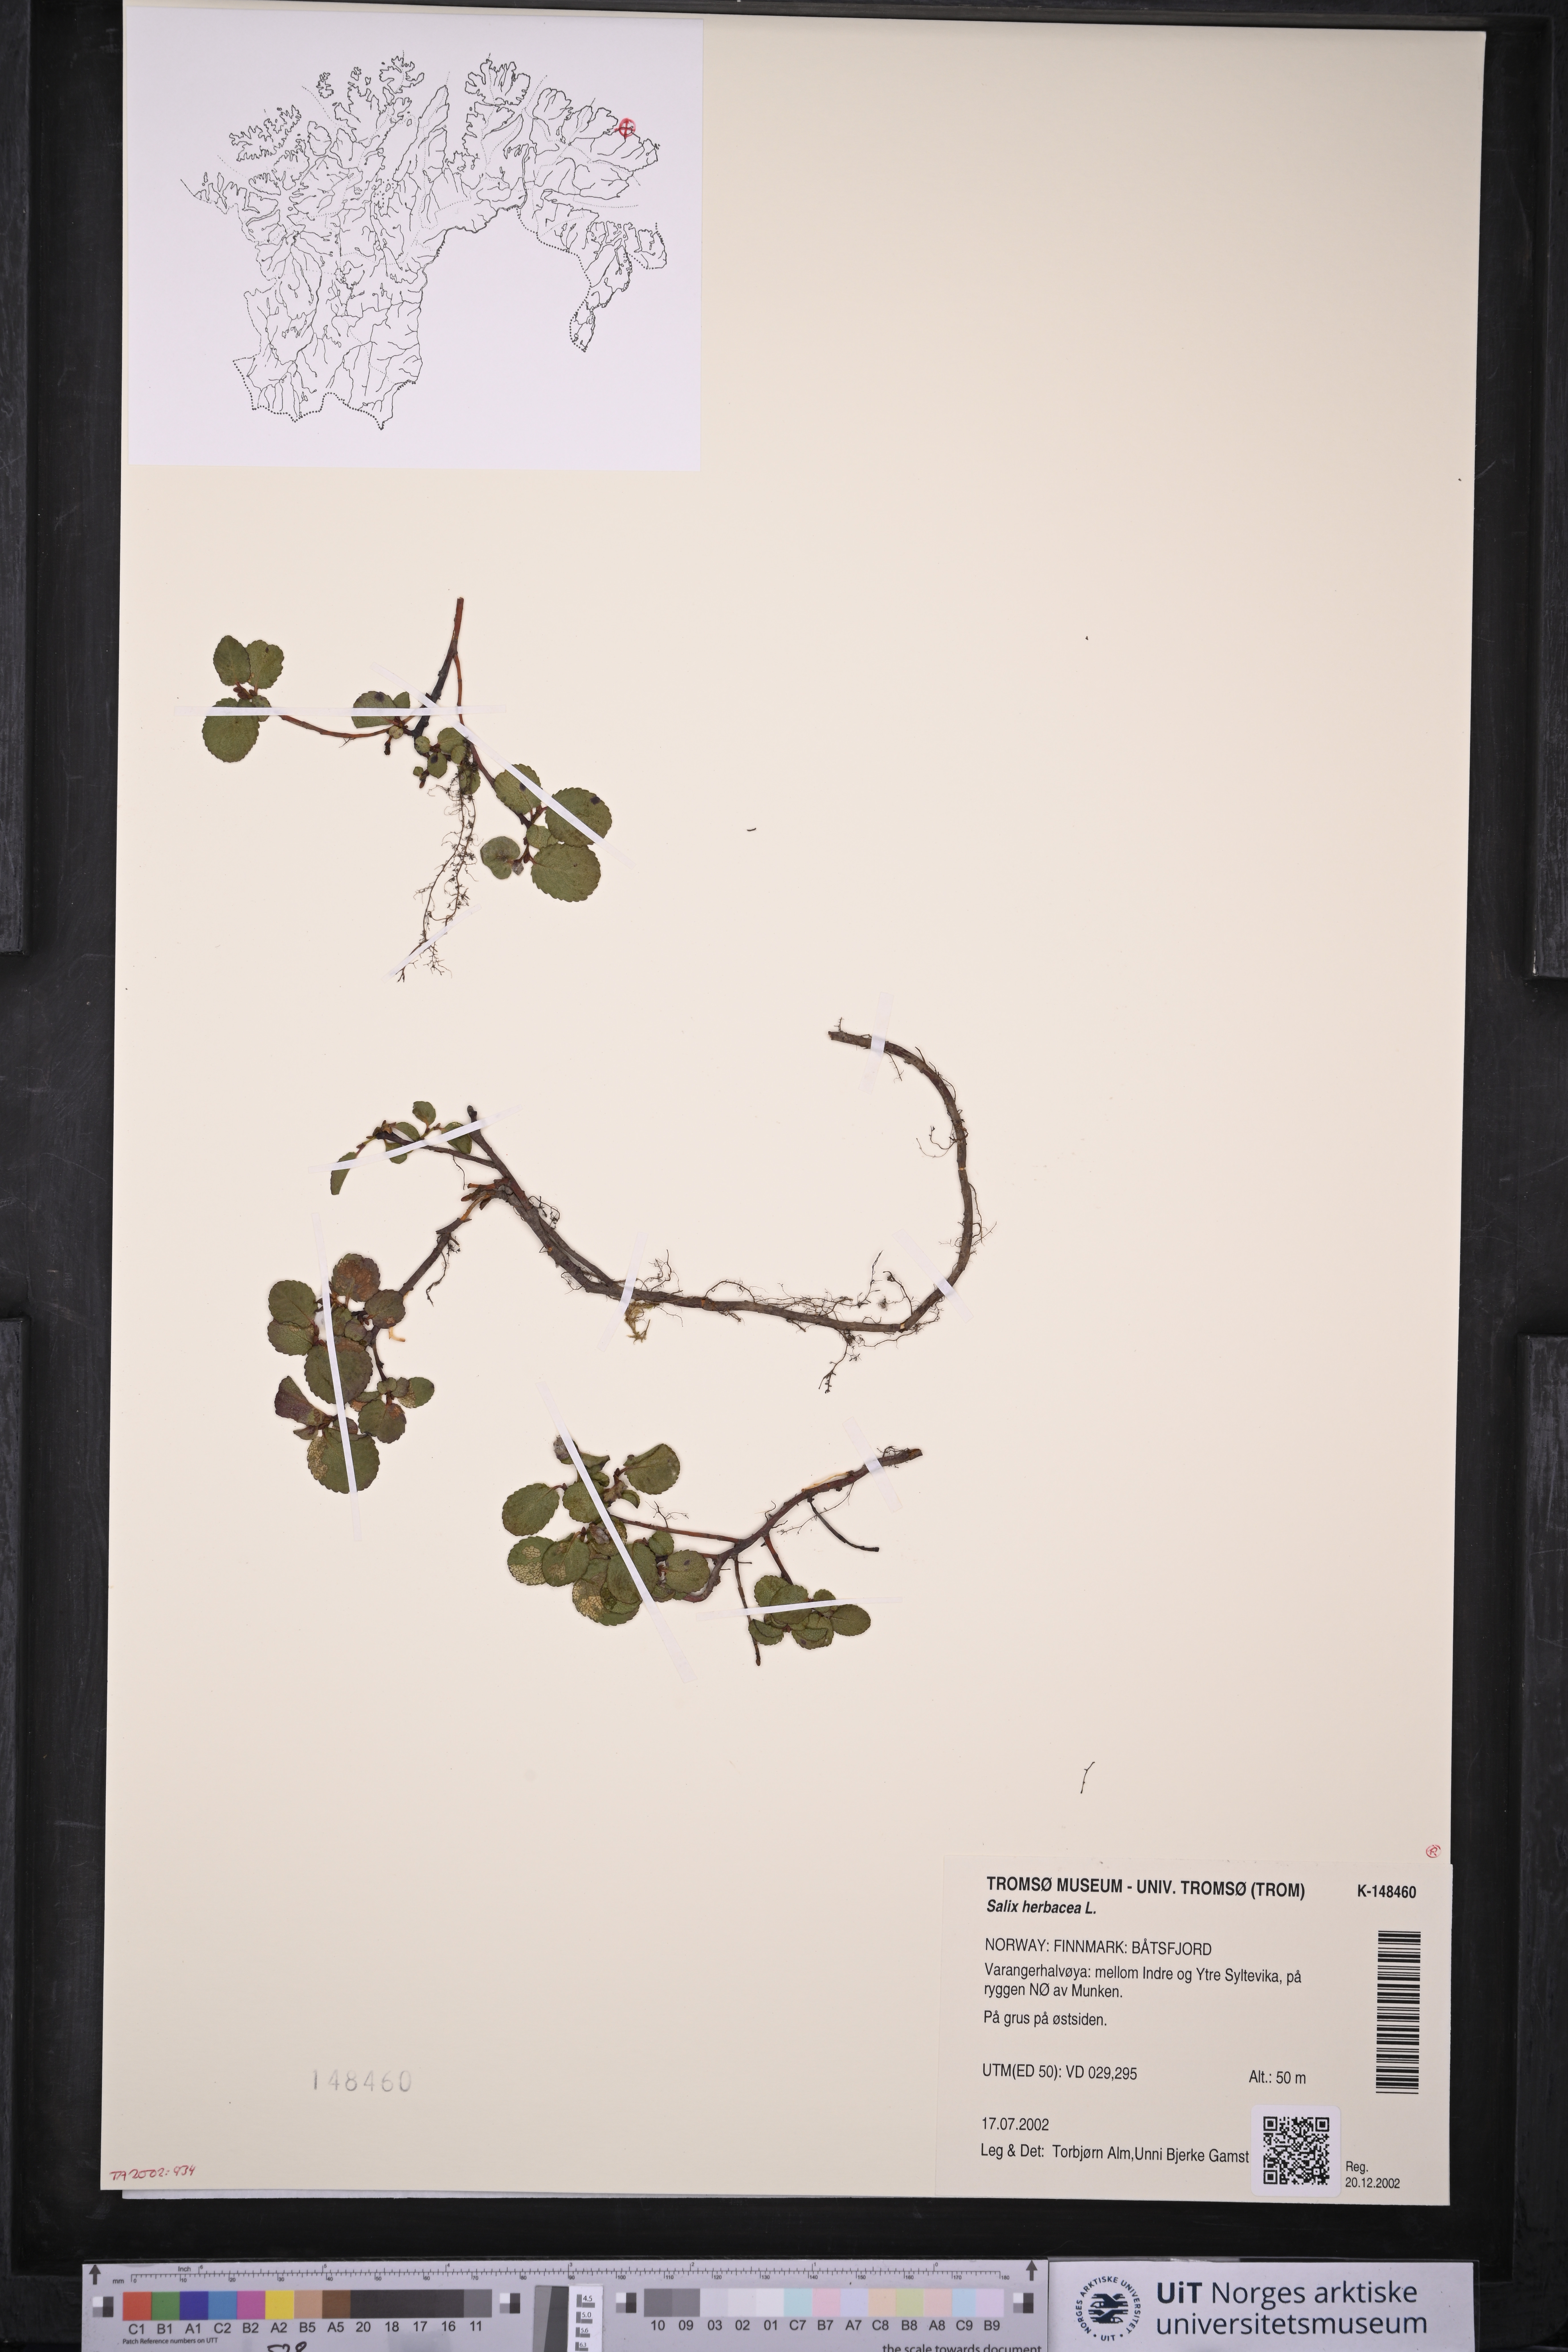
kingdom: Plantae
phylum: Tracheophyta
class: Magnoliopsida
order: Malpighiales
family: Salicaceae
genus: Salix
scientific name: Salix herbacea
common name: Dwarf willow
